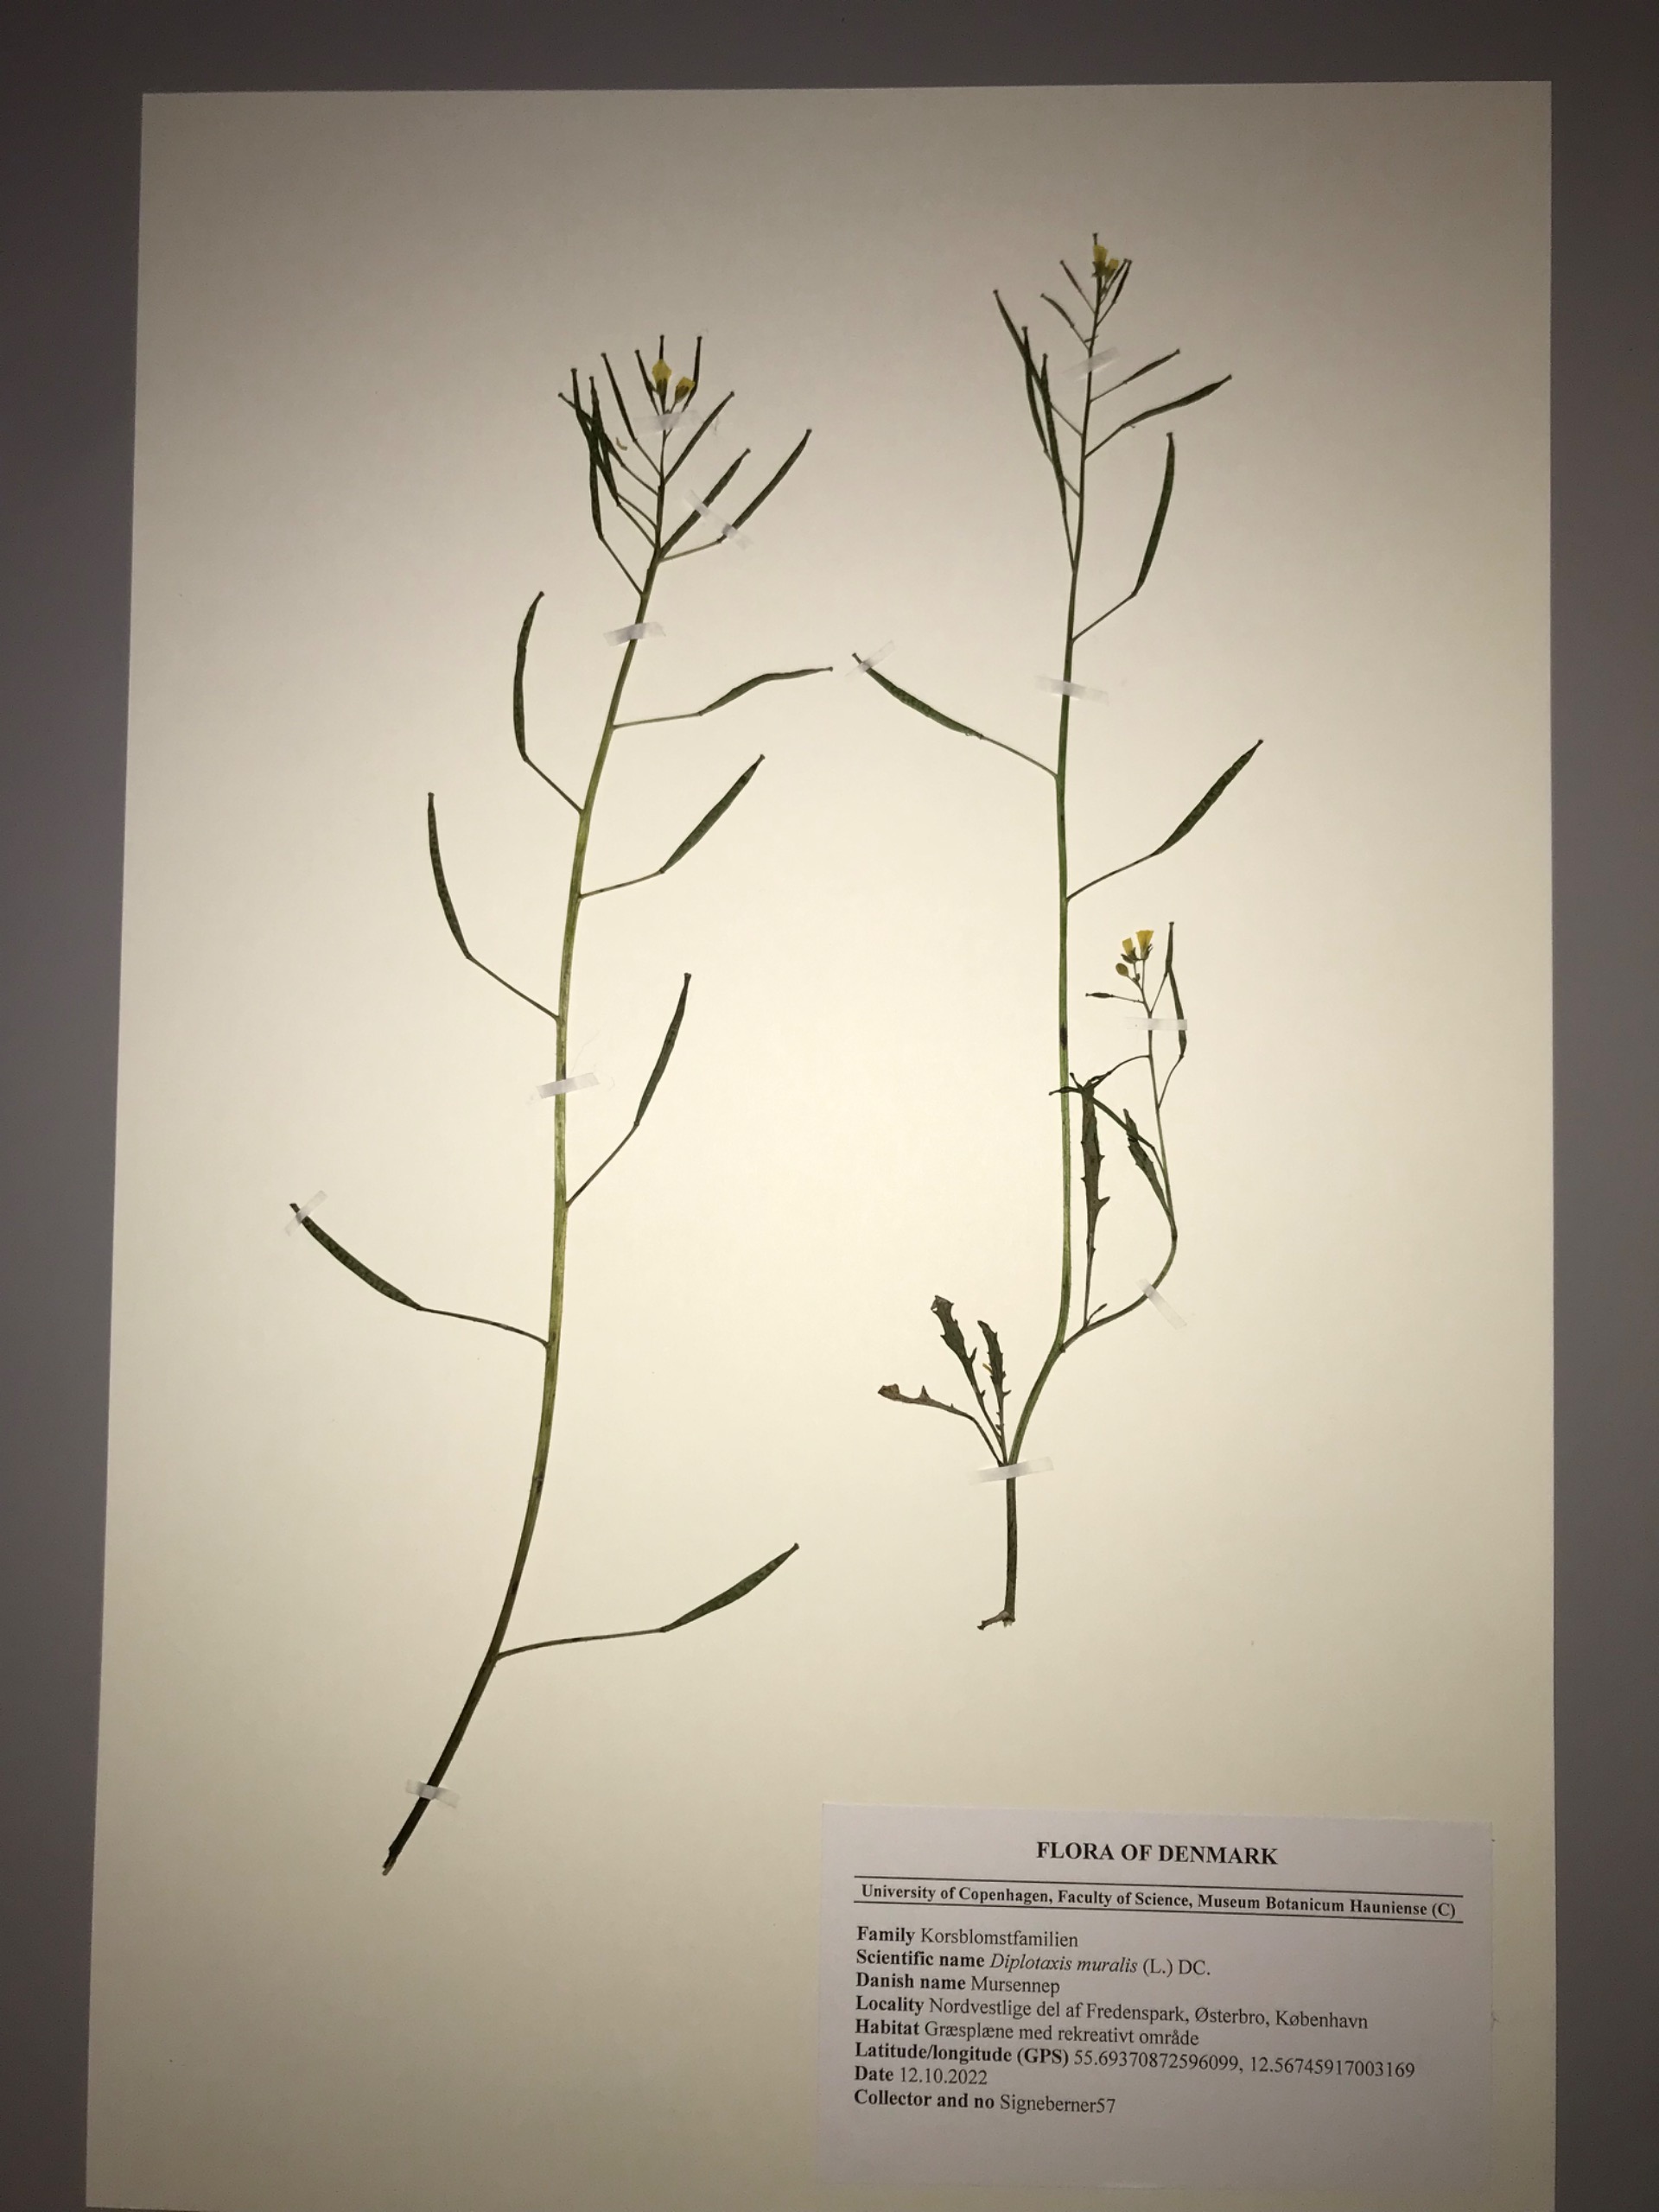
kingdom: Plantae
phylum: Tracheophyta
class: Magnoliopsida
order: Brassicales
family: Brassicaceae
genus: Diplotaxis
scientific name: Diplotaxis muralis
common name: Mursennep
